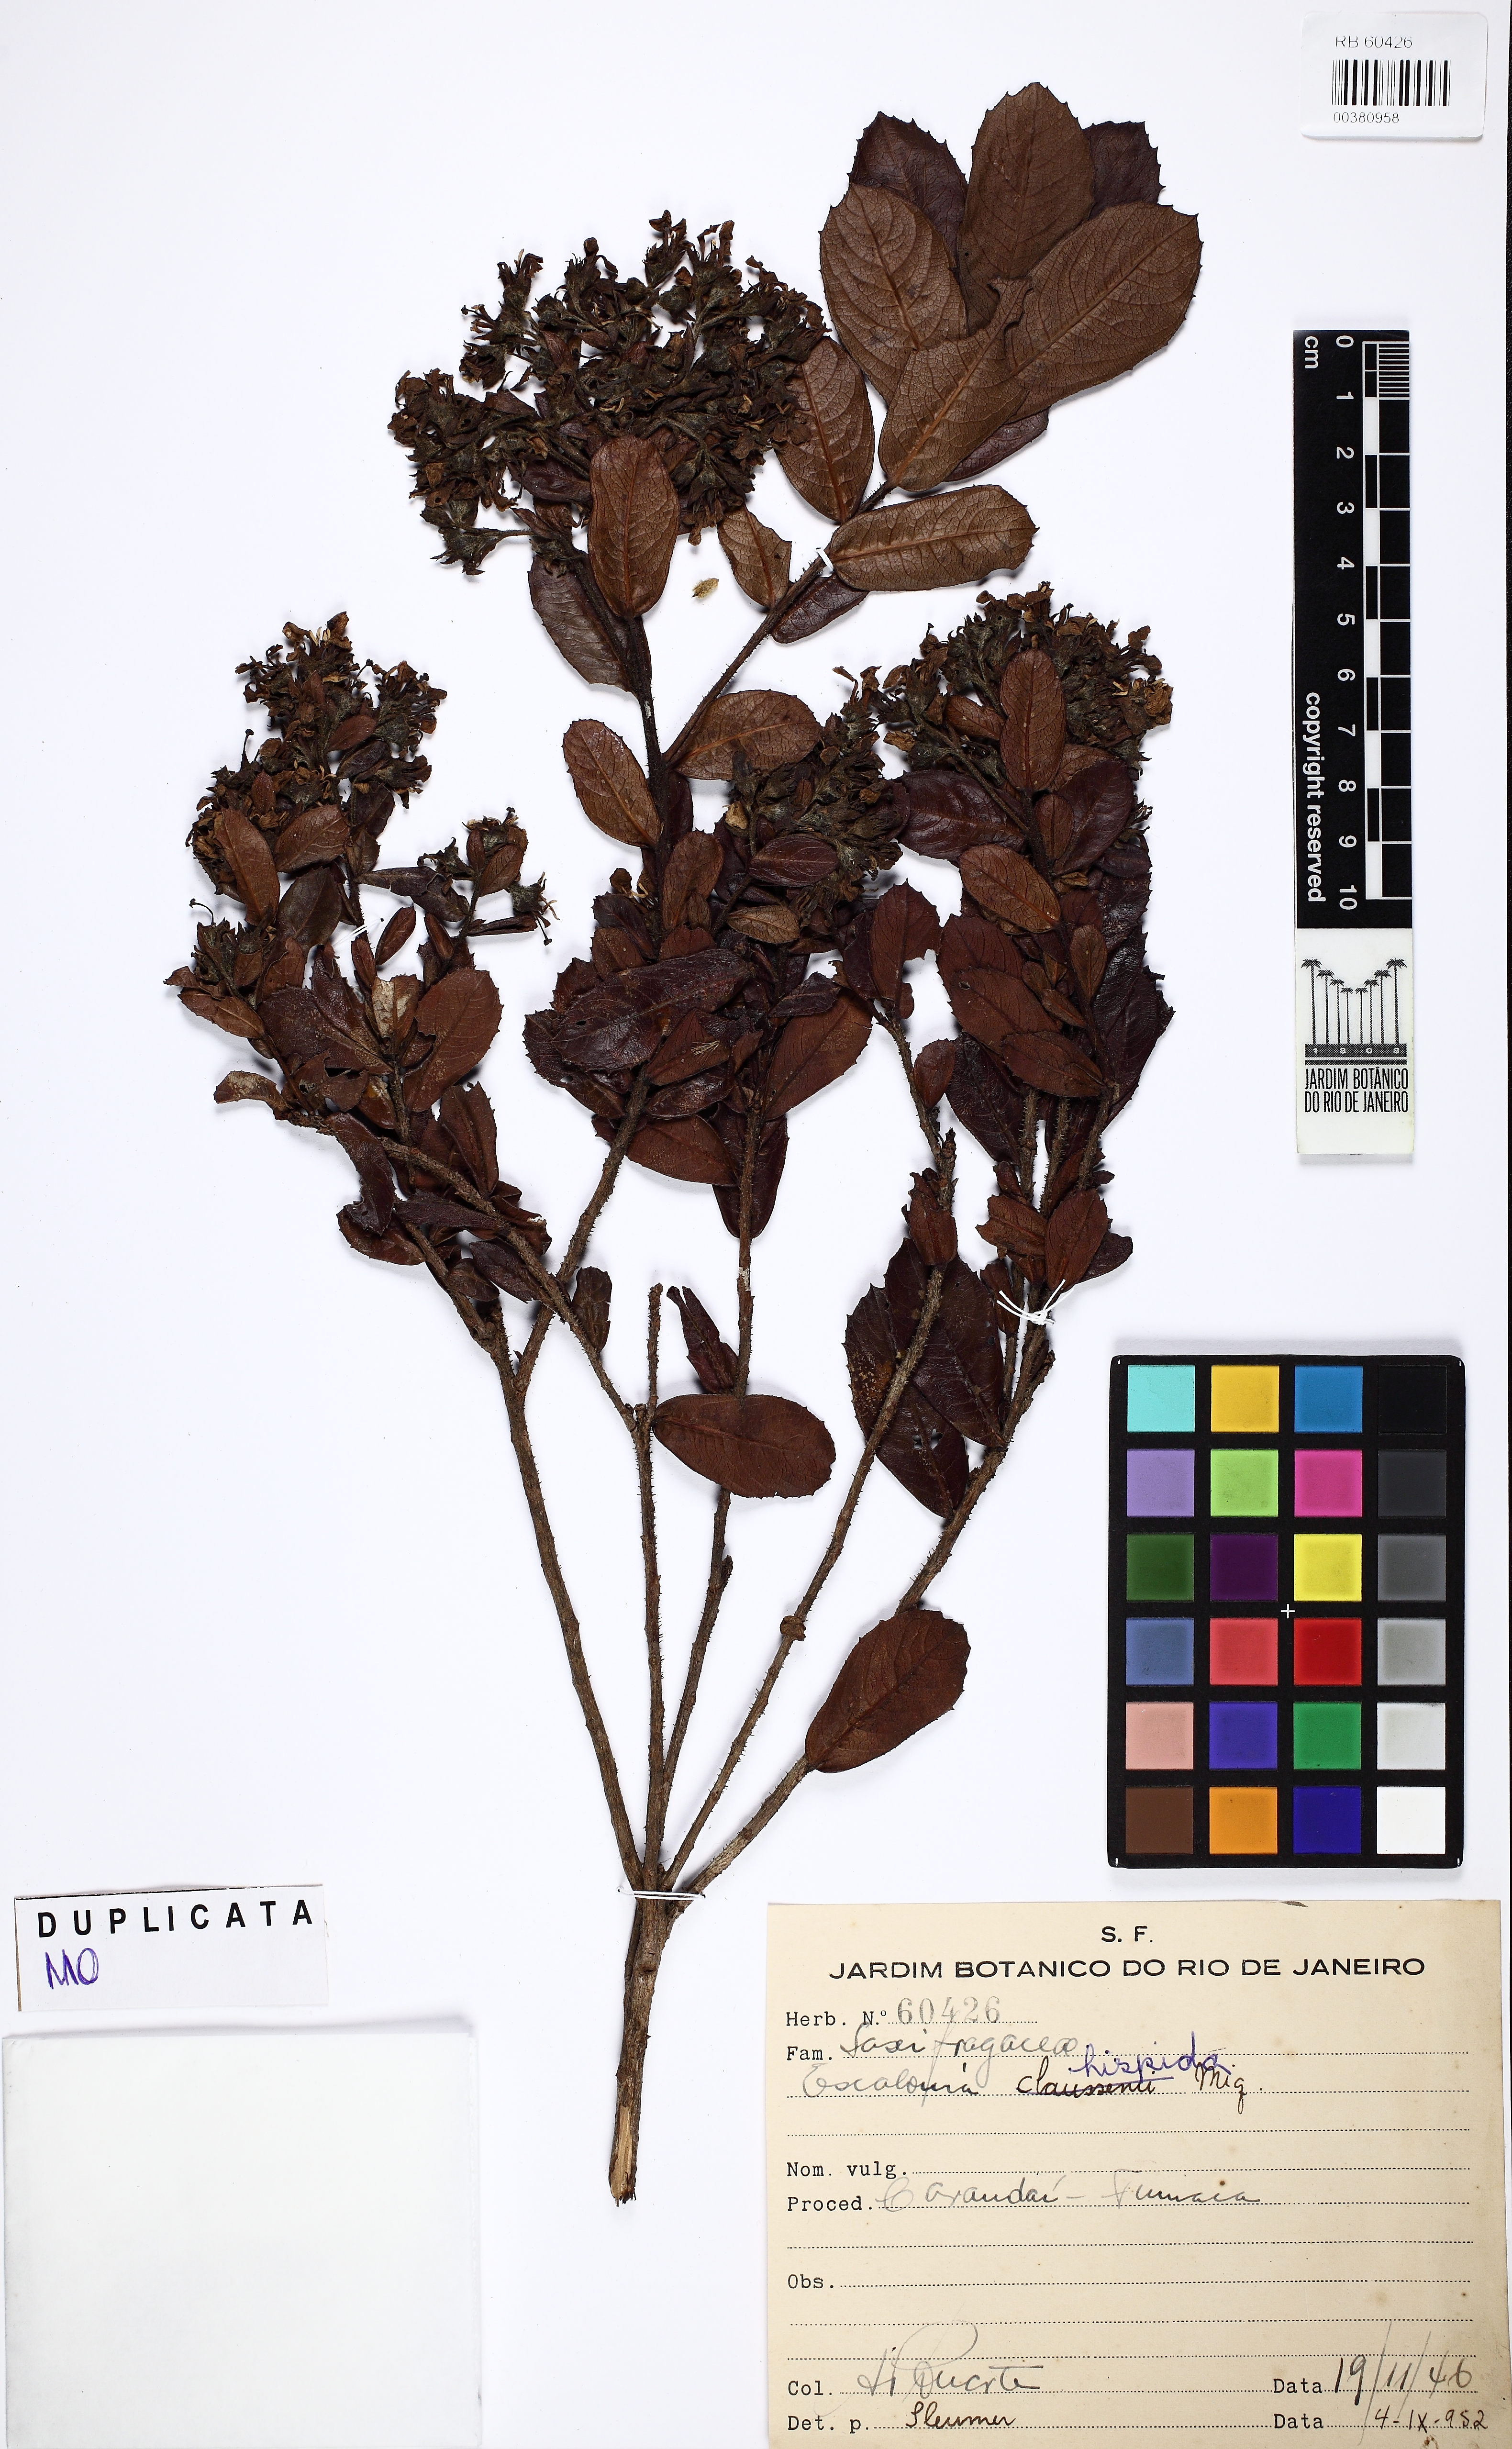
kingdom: Plantae
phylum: Tracheophyta
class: Magnoliopsida
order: Escalloniales
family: Escalloniaceae
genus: Escallonia
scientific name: Escallonia hispida
